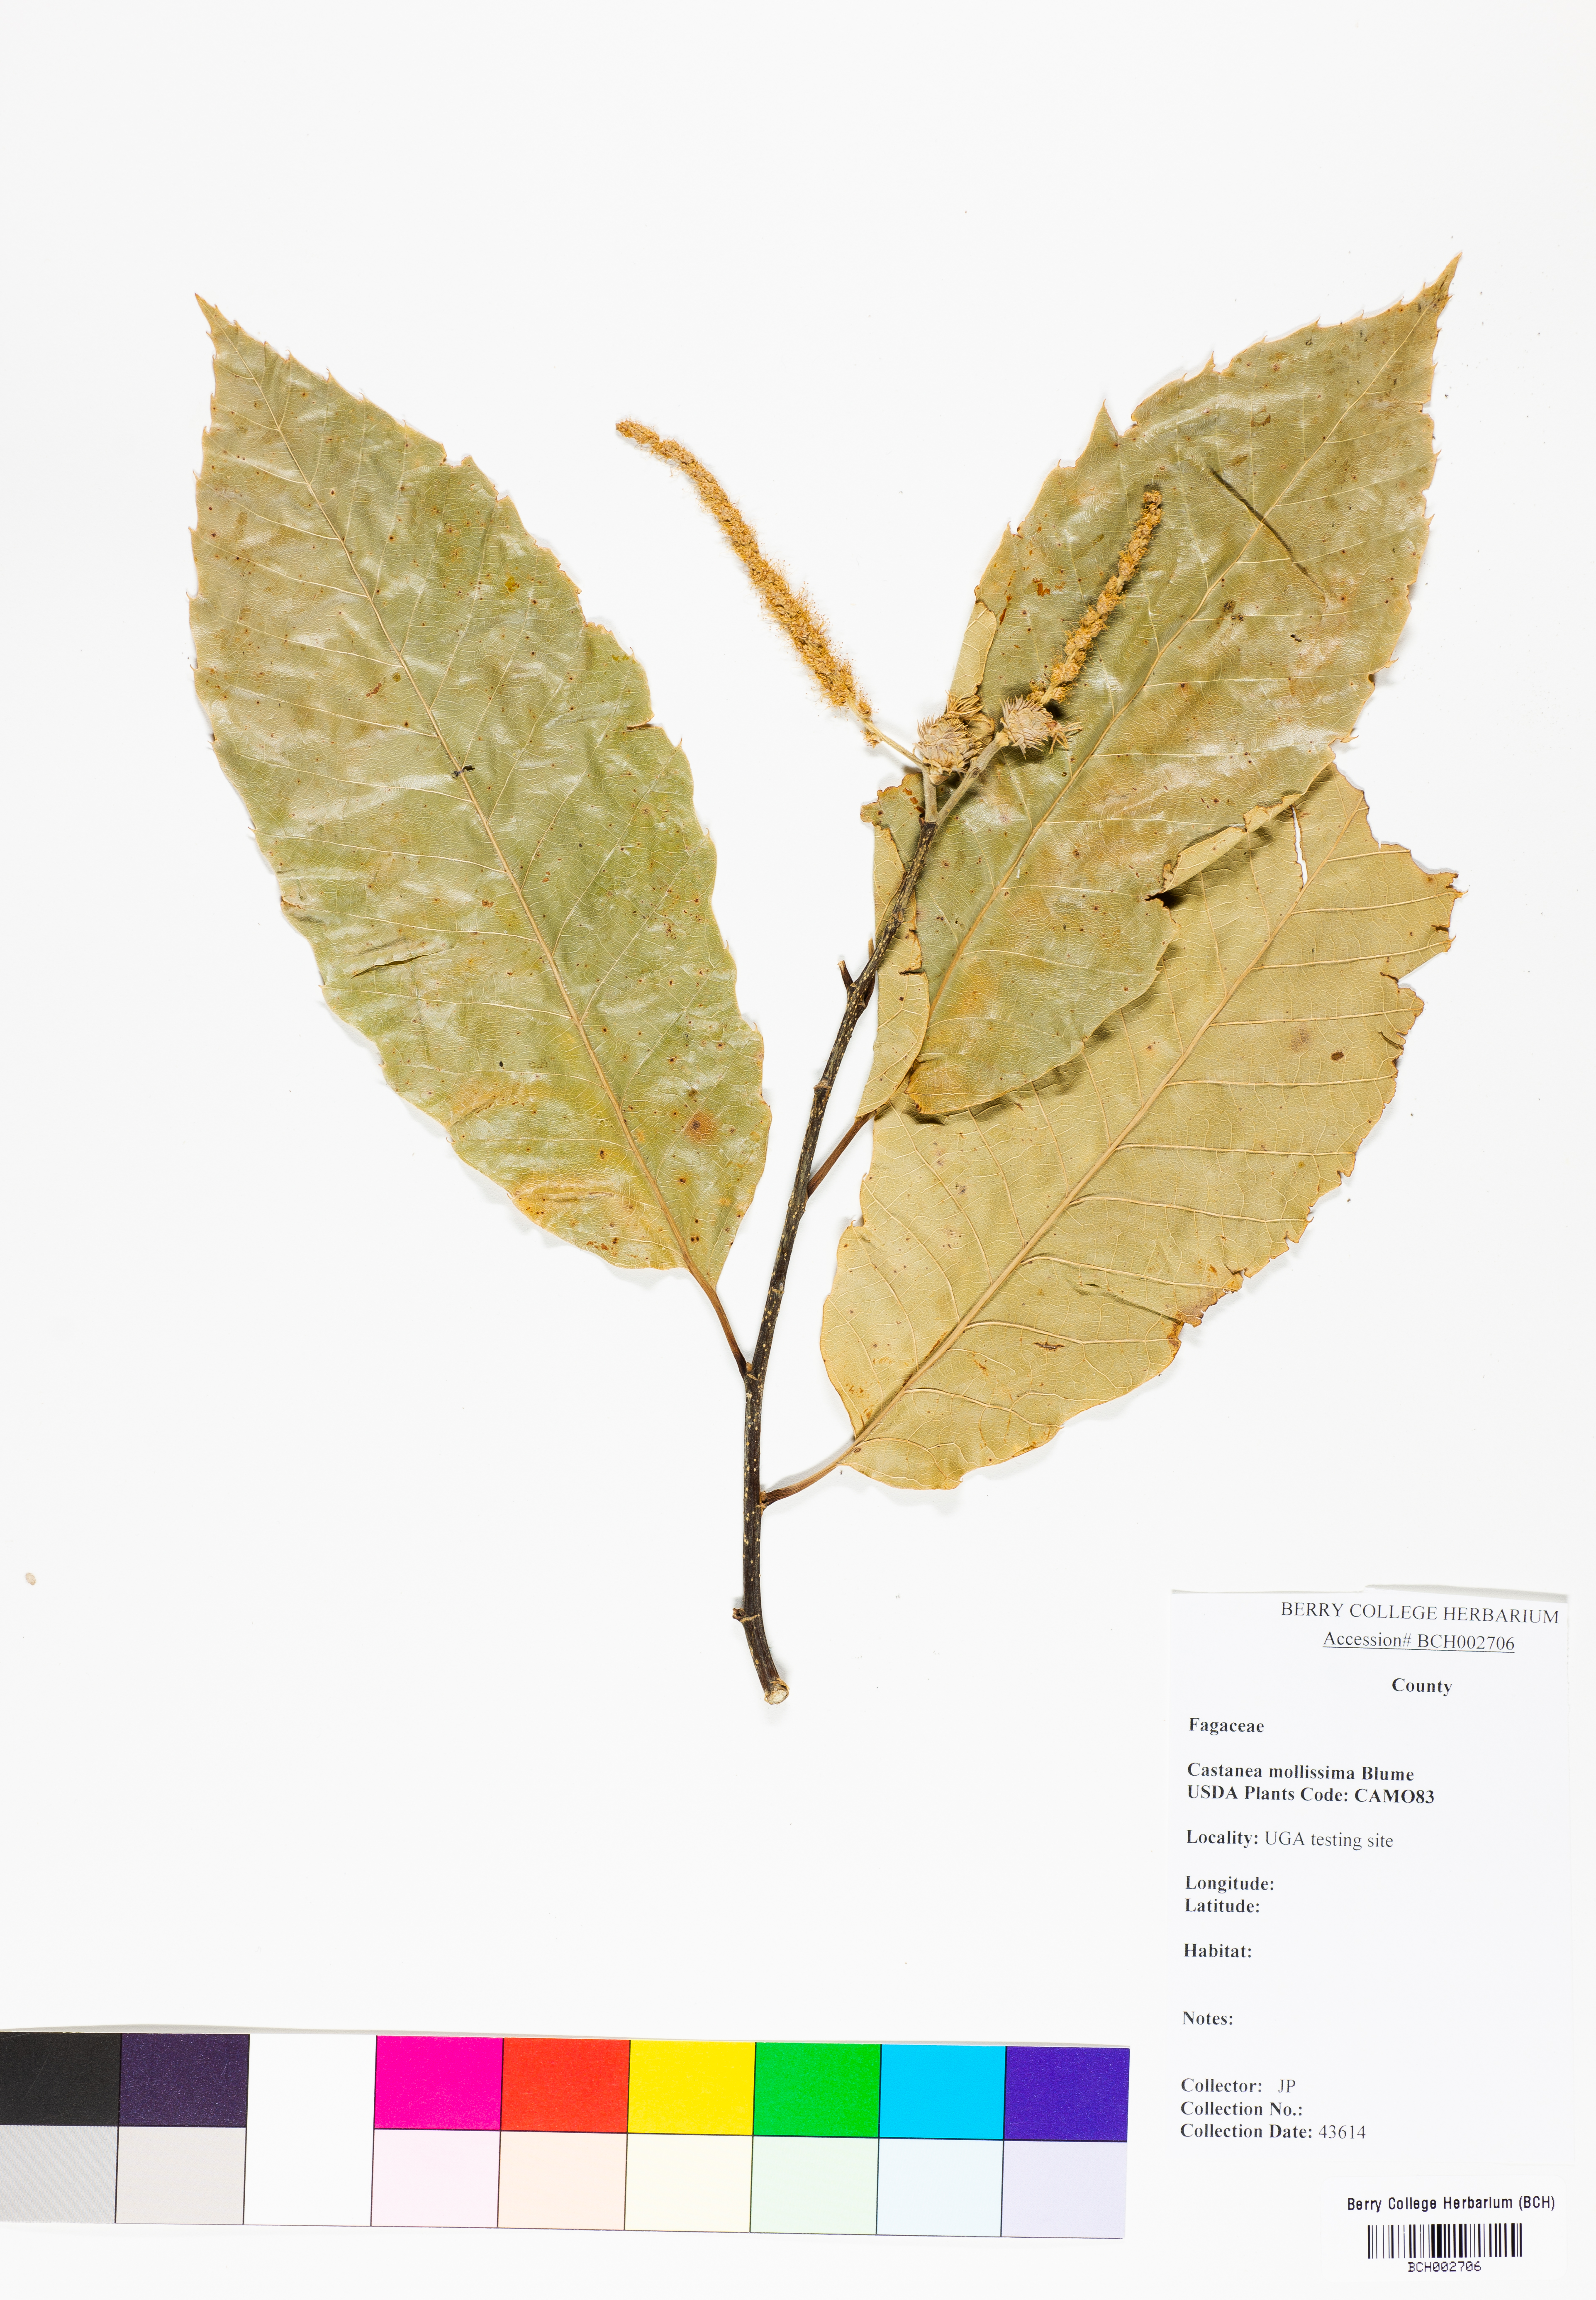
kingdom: Plantae
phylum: Tracheophyta
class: Magnoliopsida
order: Fagales
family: Fagaceae
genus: Castanea
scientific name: Castanea mollissima
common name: Chinese chestnut
